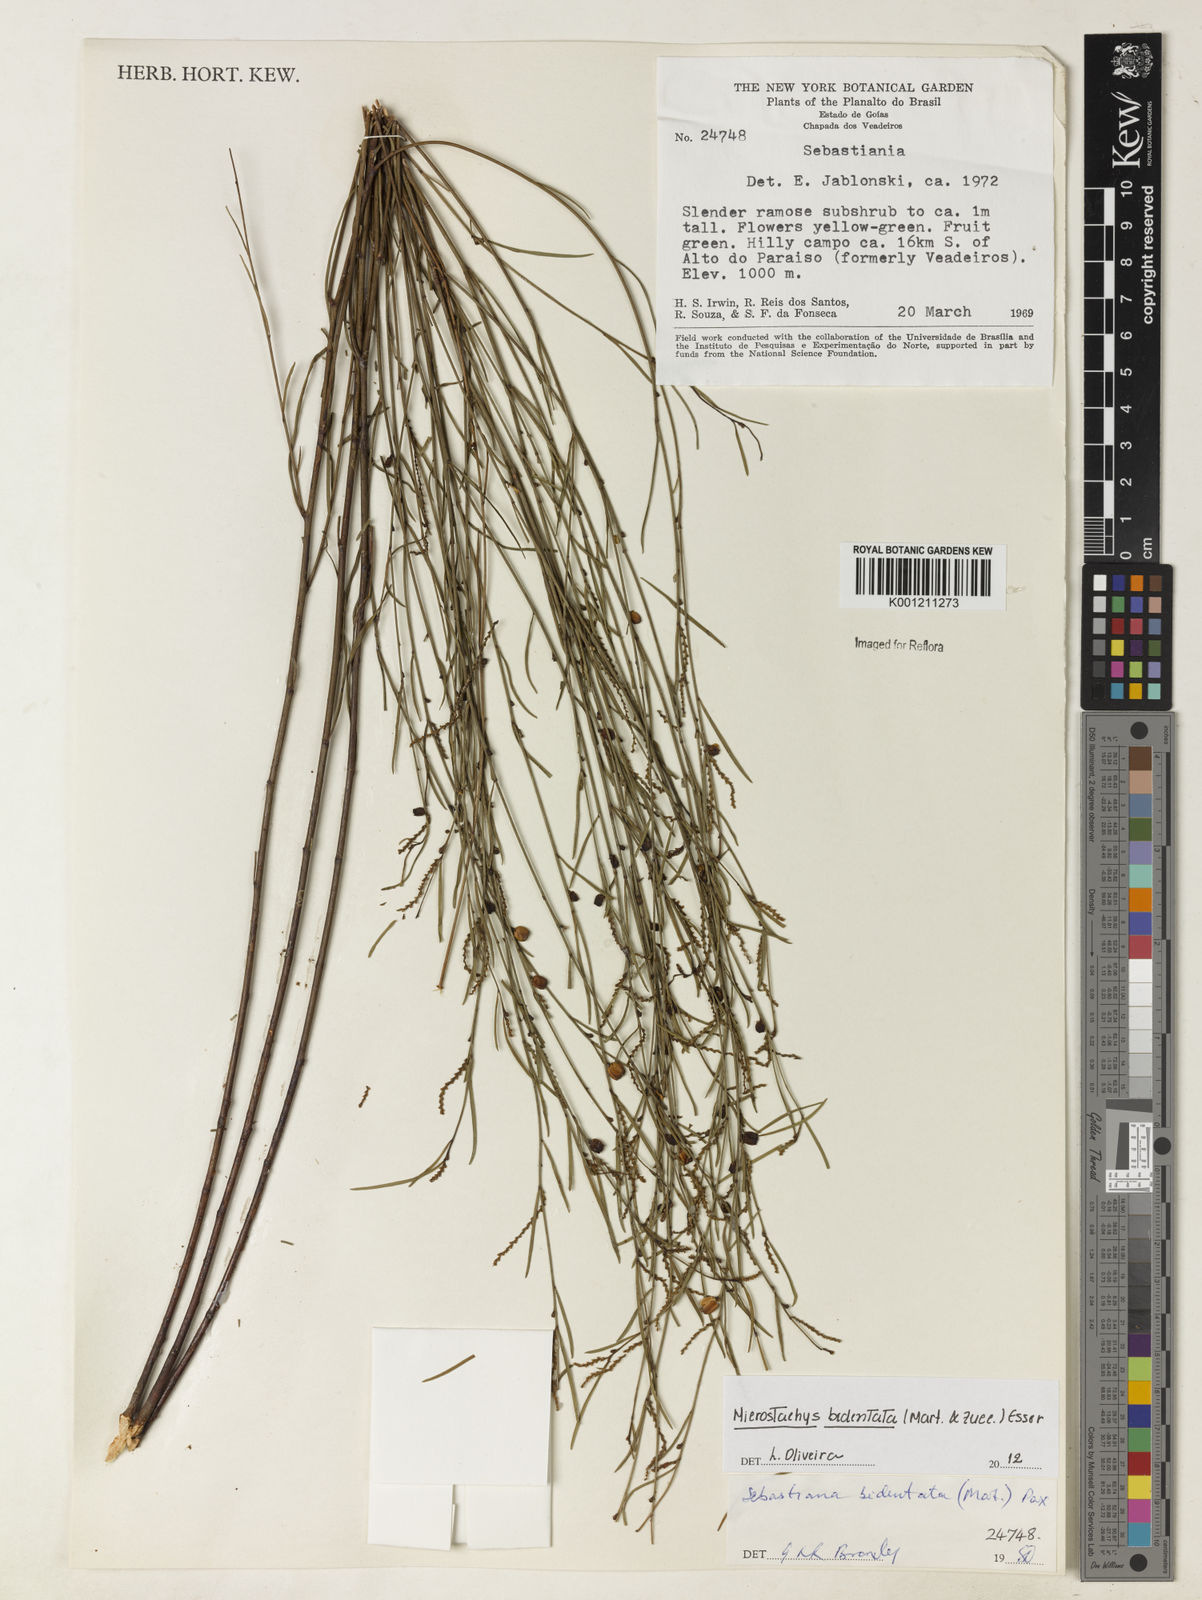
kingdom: Plantae
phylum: Tracheophyta
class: Magnoliopsida
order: Malpighiales
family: Euphorbiaceae
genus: Microstachys
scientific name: Microstachys bidentata
